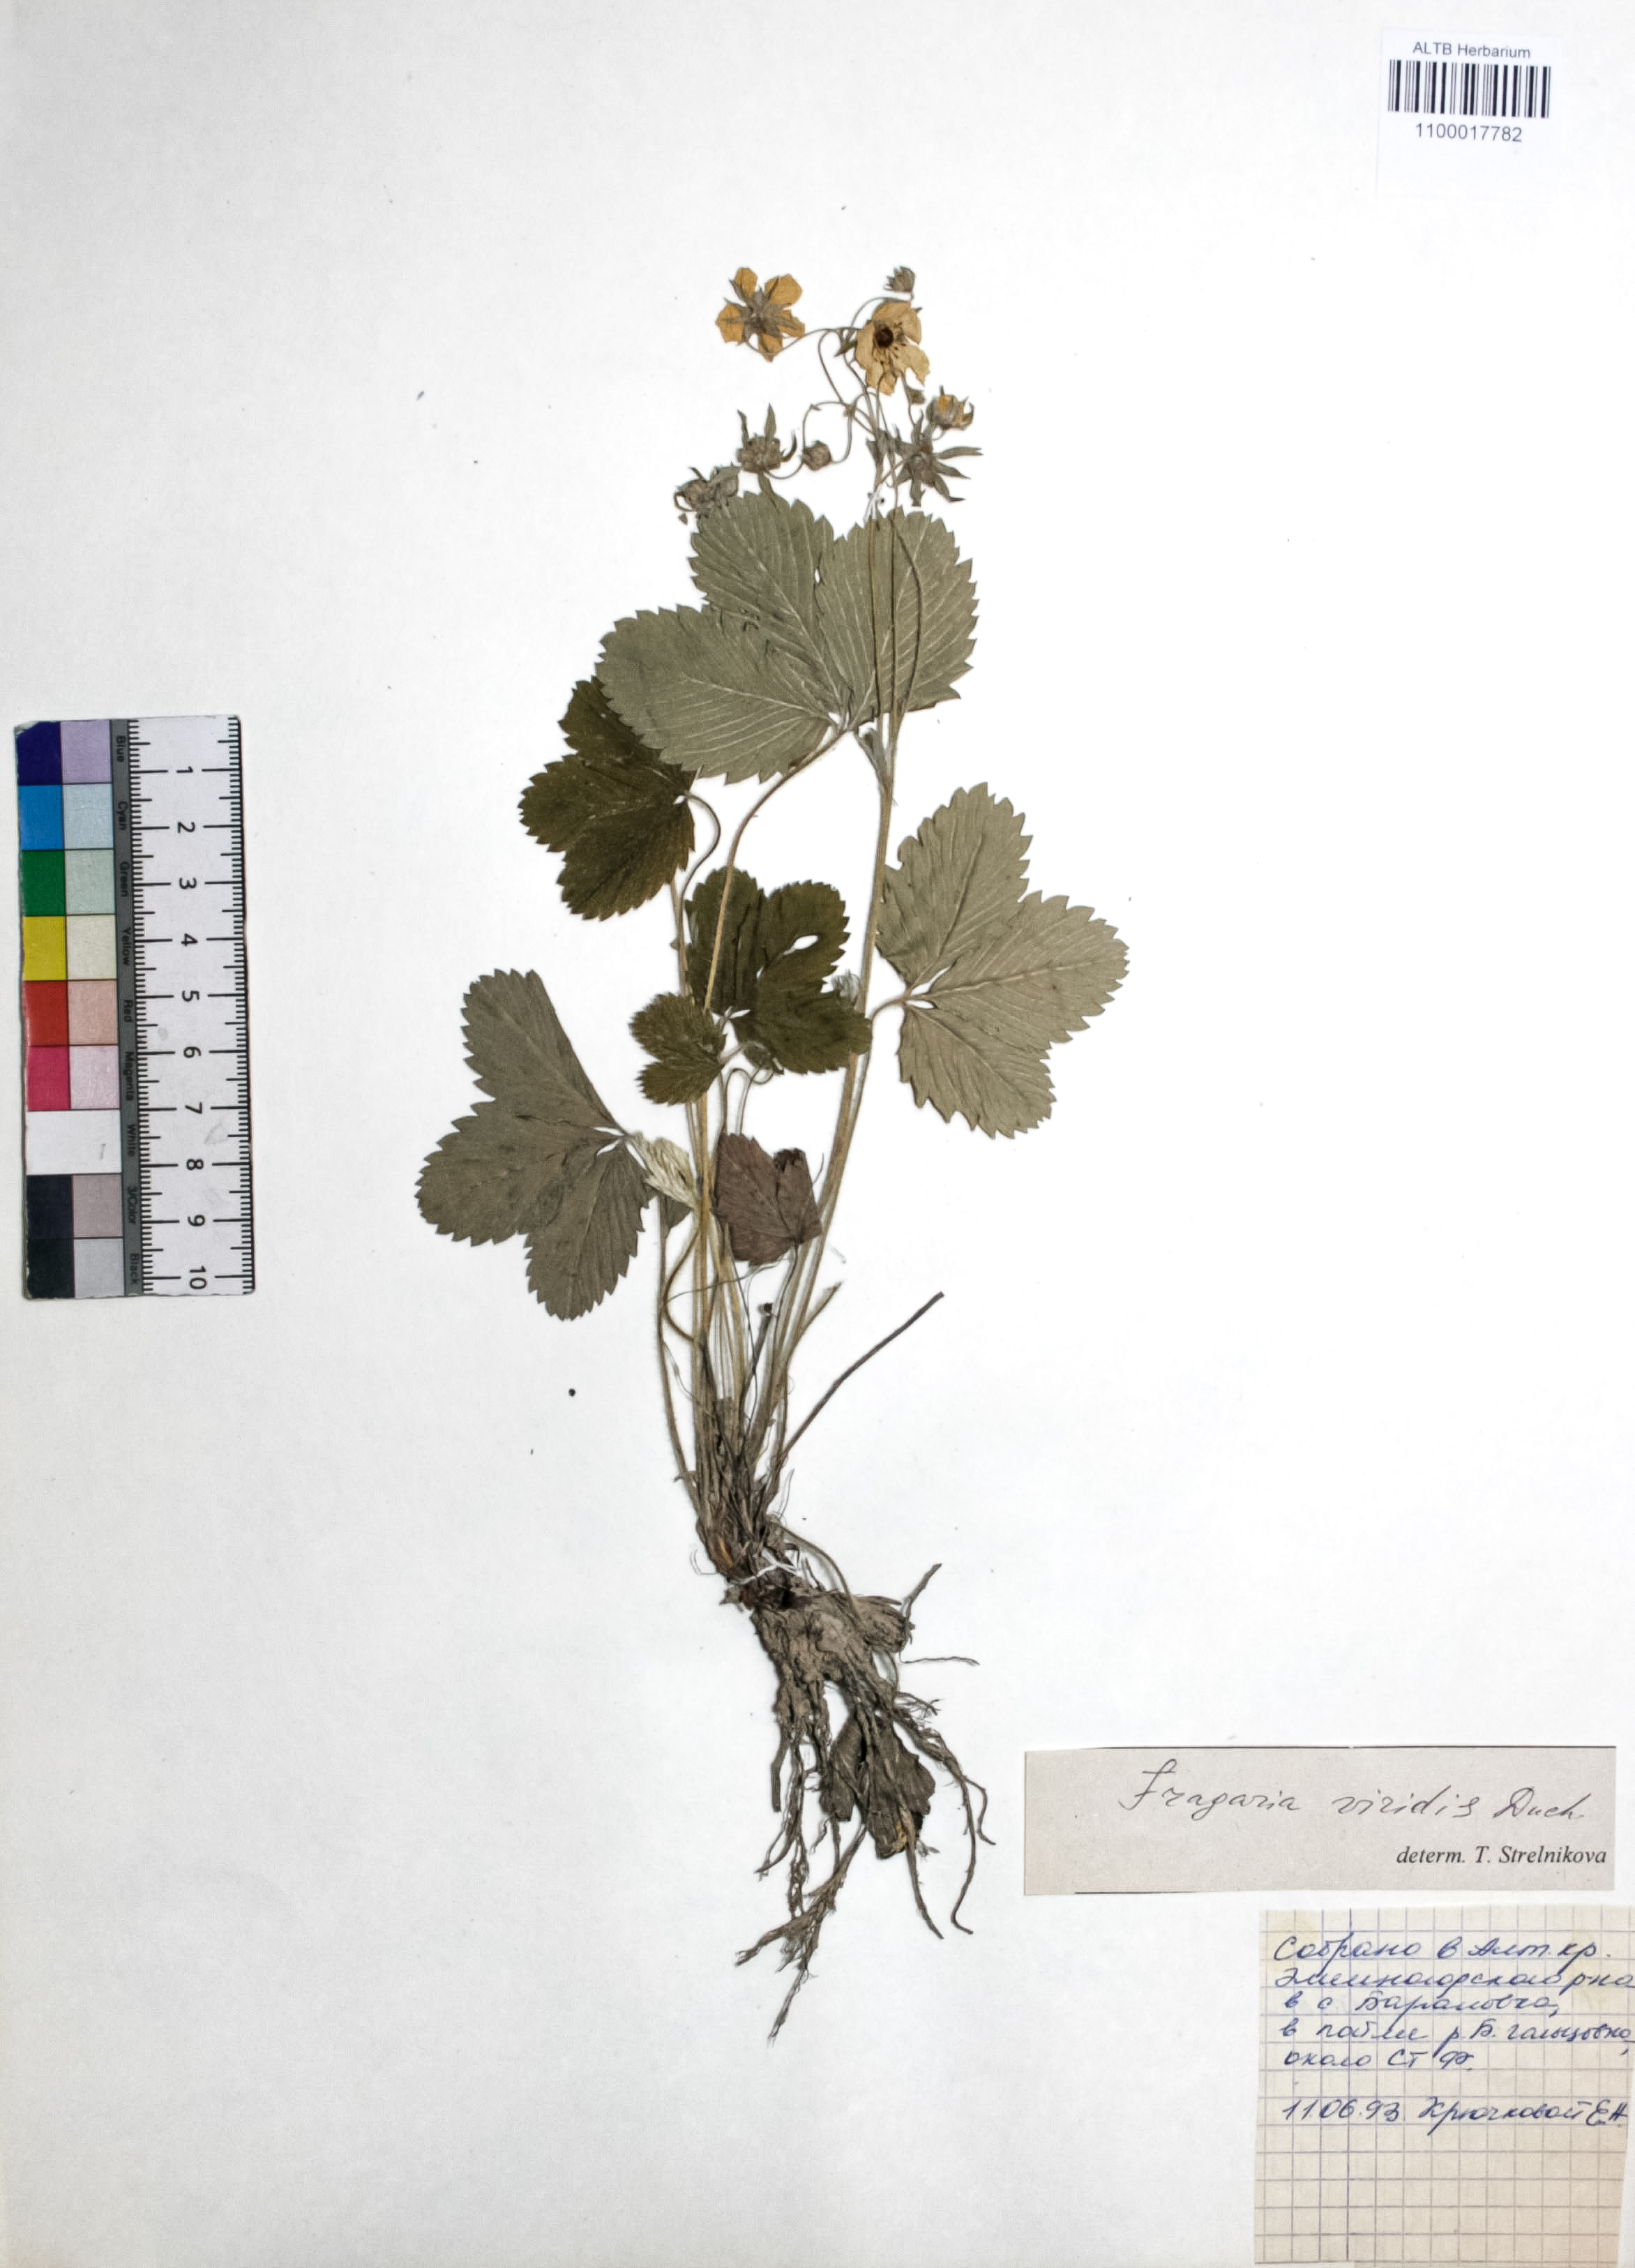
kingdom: Plantae
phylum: Tracheophyta
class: Magnoliopsida
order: Rosales
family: Rosaceae
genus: Fragaria
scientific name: Fragaria viridis
